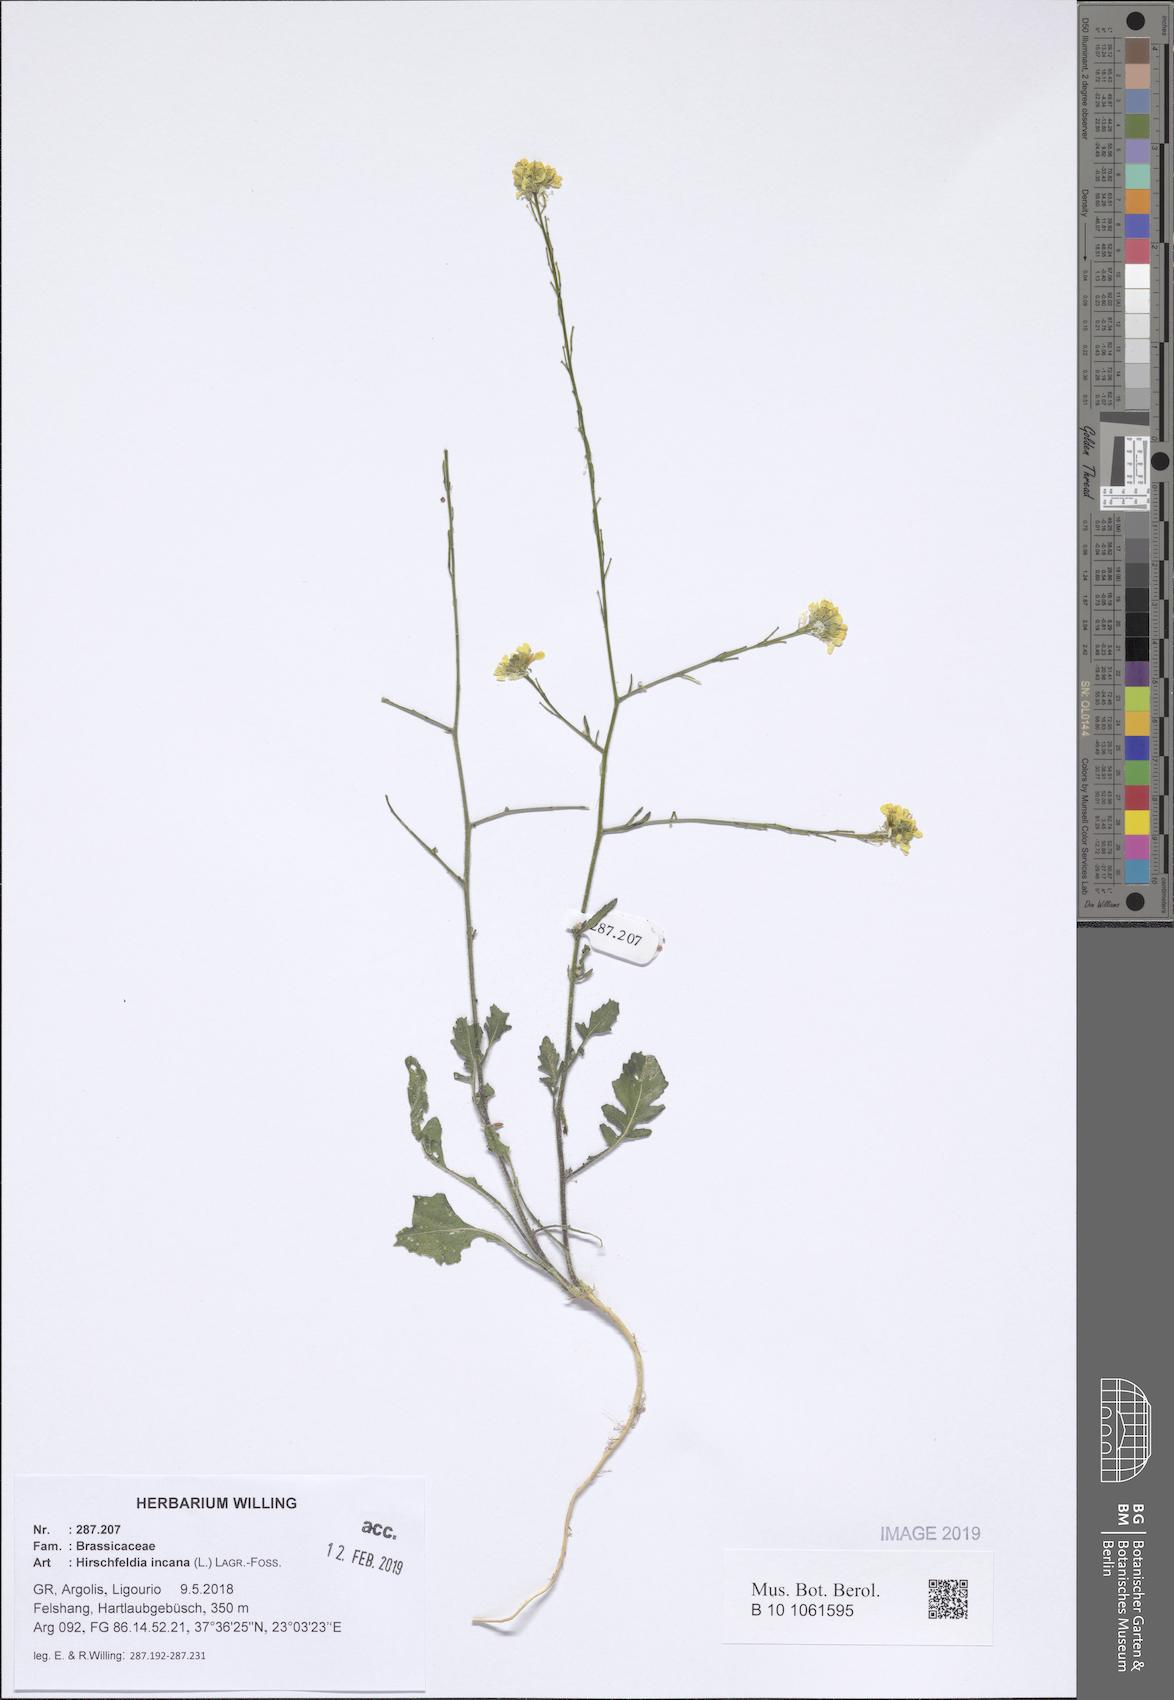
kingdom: Plantae
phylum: Tracheophyta
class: Magnoliopsida
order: Brassicales
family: Brassicaceae
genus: Hirschfeldia
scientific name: Hirschfeldia incana
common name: Hoary mustard
